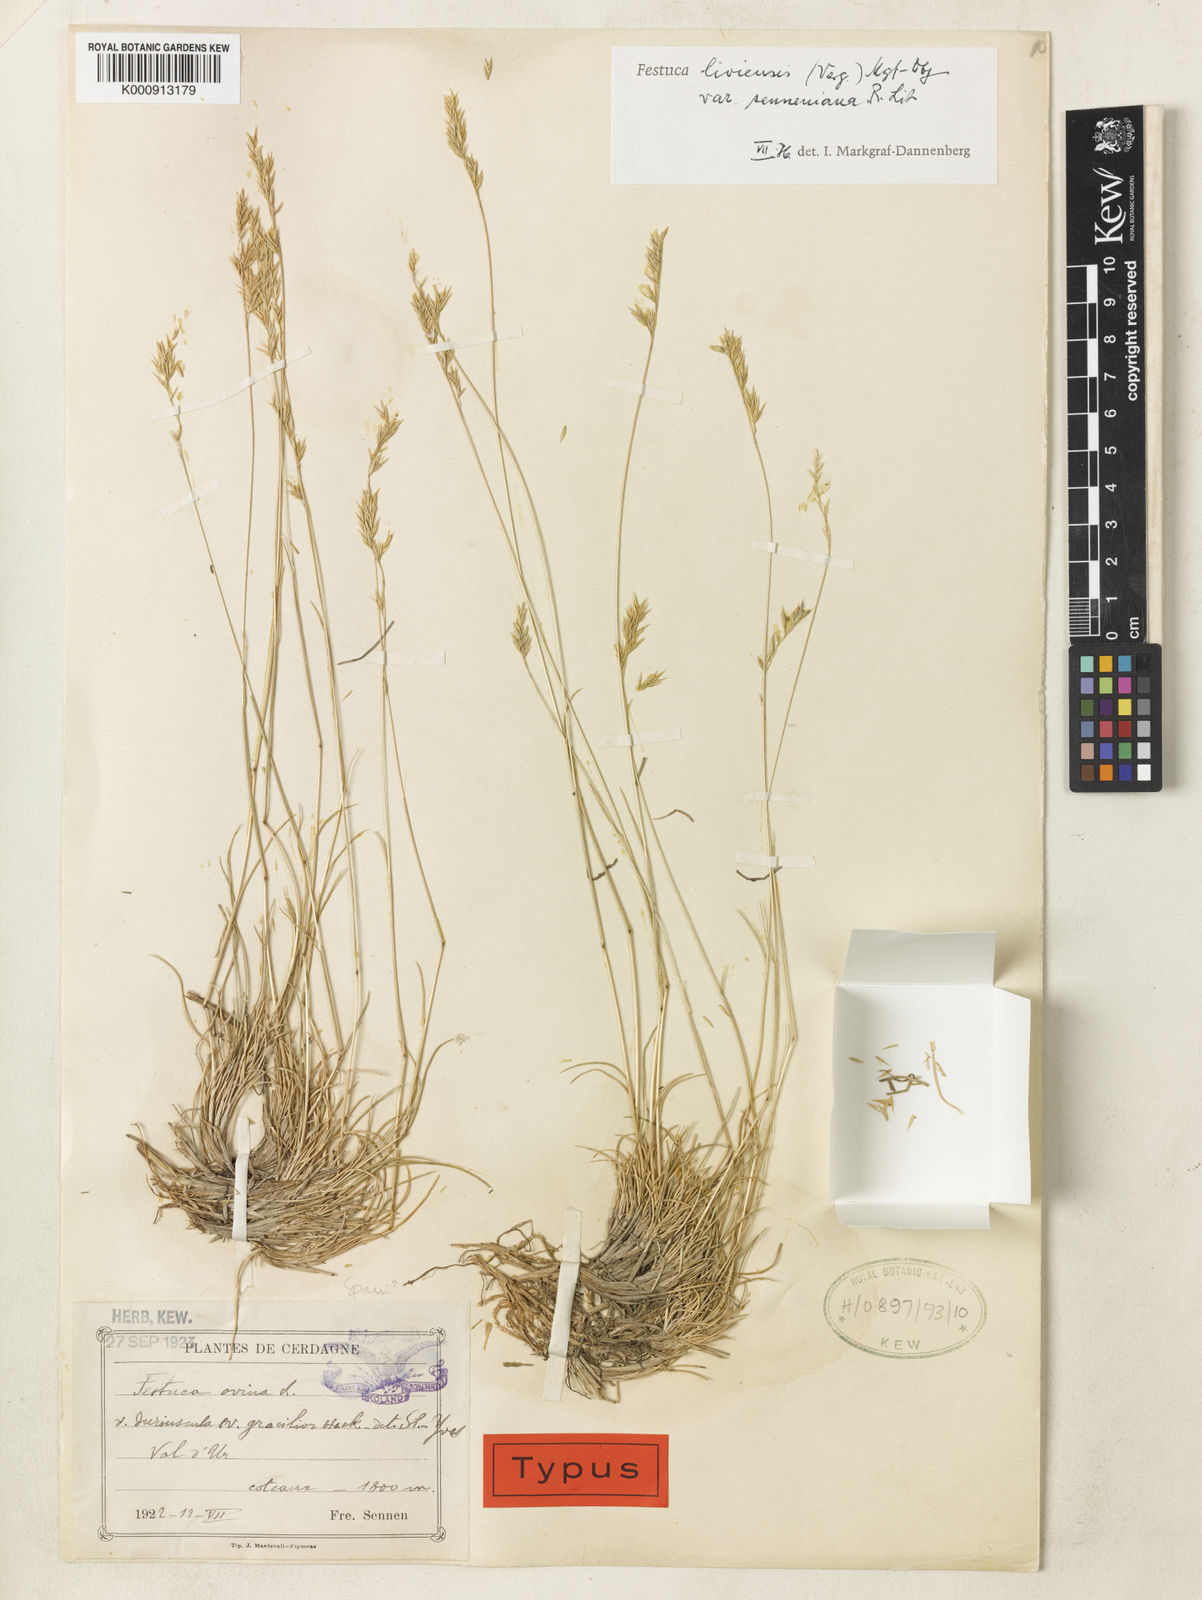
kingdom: Plantae
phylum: Tracheophyta
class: Liliopsida
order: Poales
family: Poaceae
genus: Festuca
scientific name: Festuca liviensis
